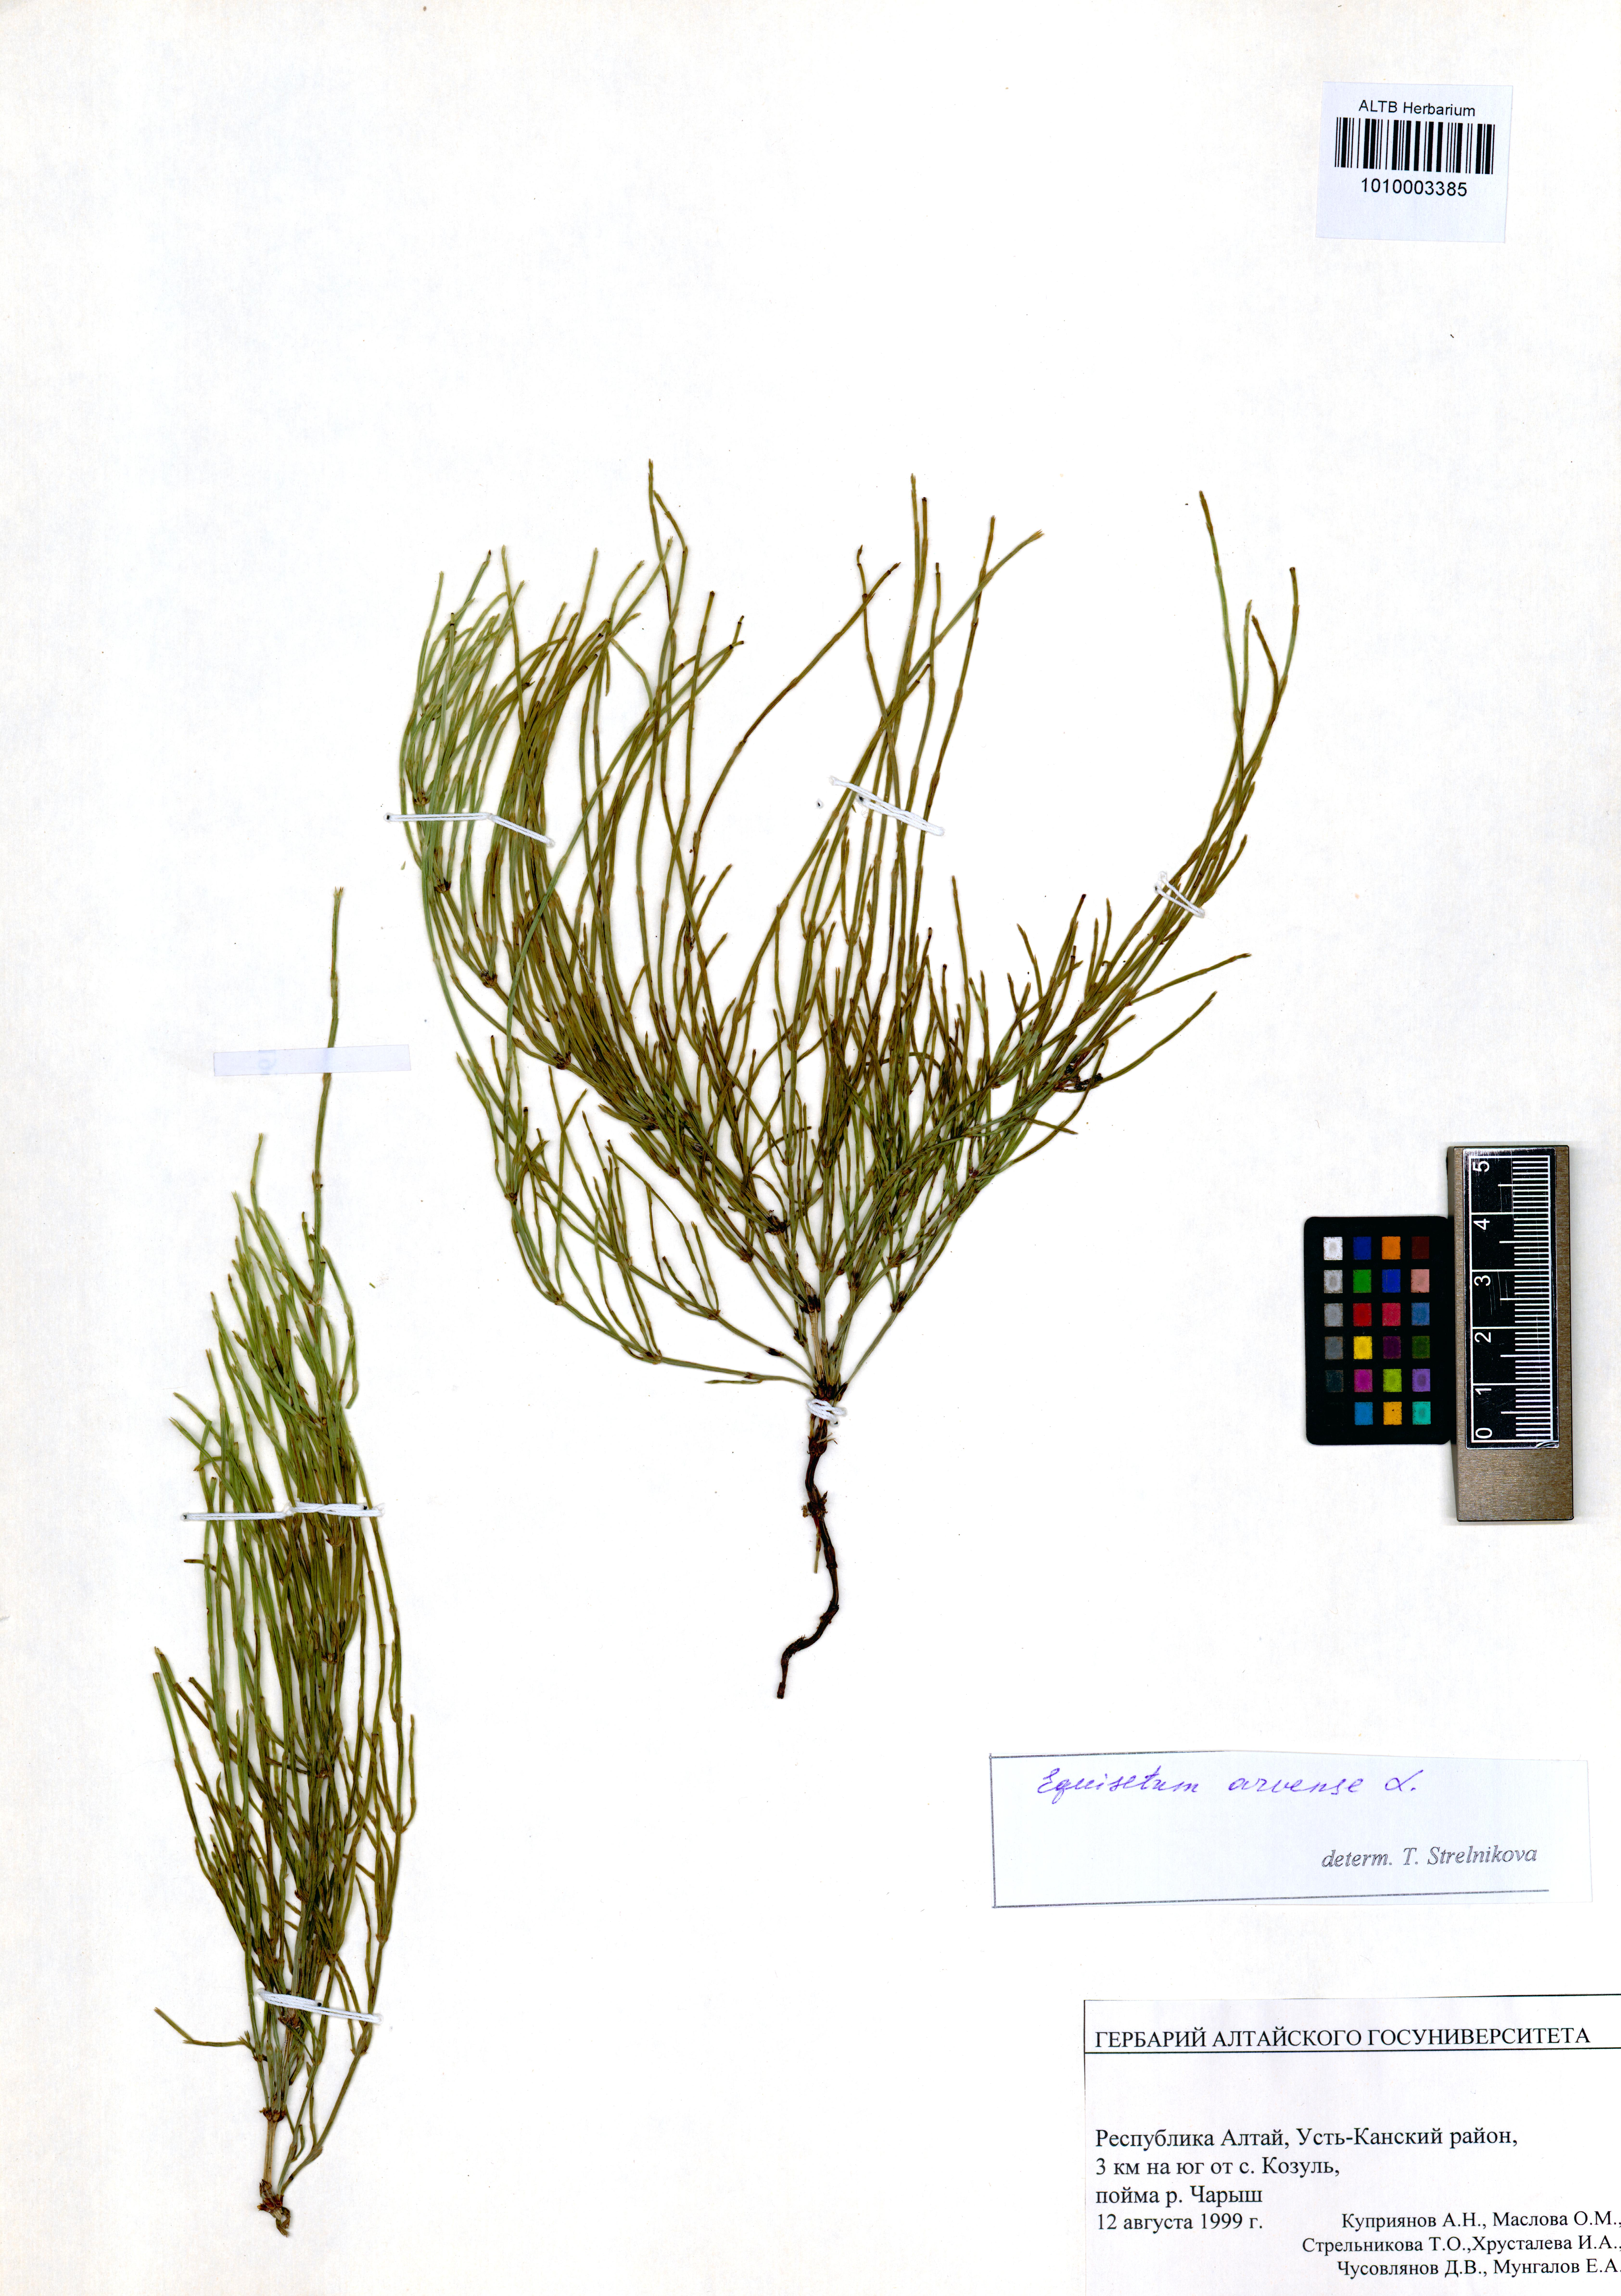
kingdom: Plantae
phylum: Tracheophyta
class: Polypodiopsida
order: Equisetales
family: Equisetaceae
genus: Equisetum
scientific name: Equisetum arvense
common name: Field horsetail
